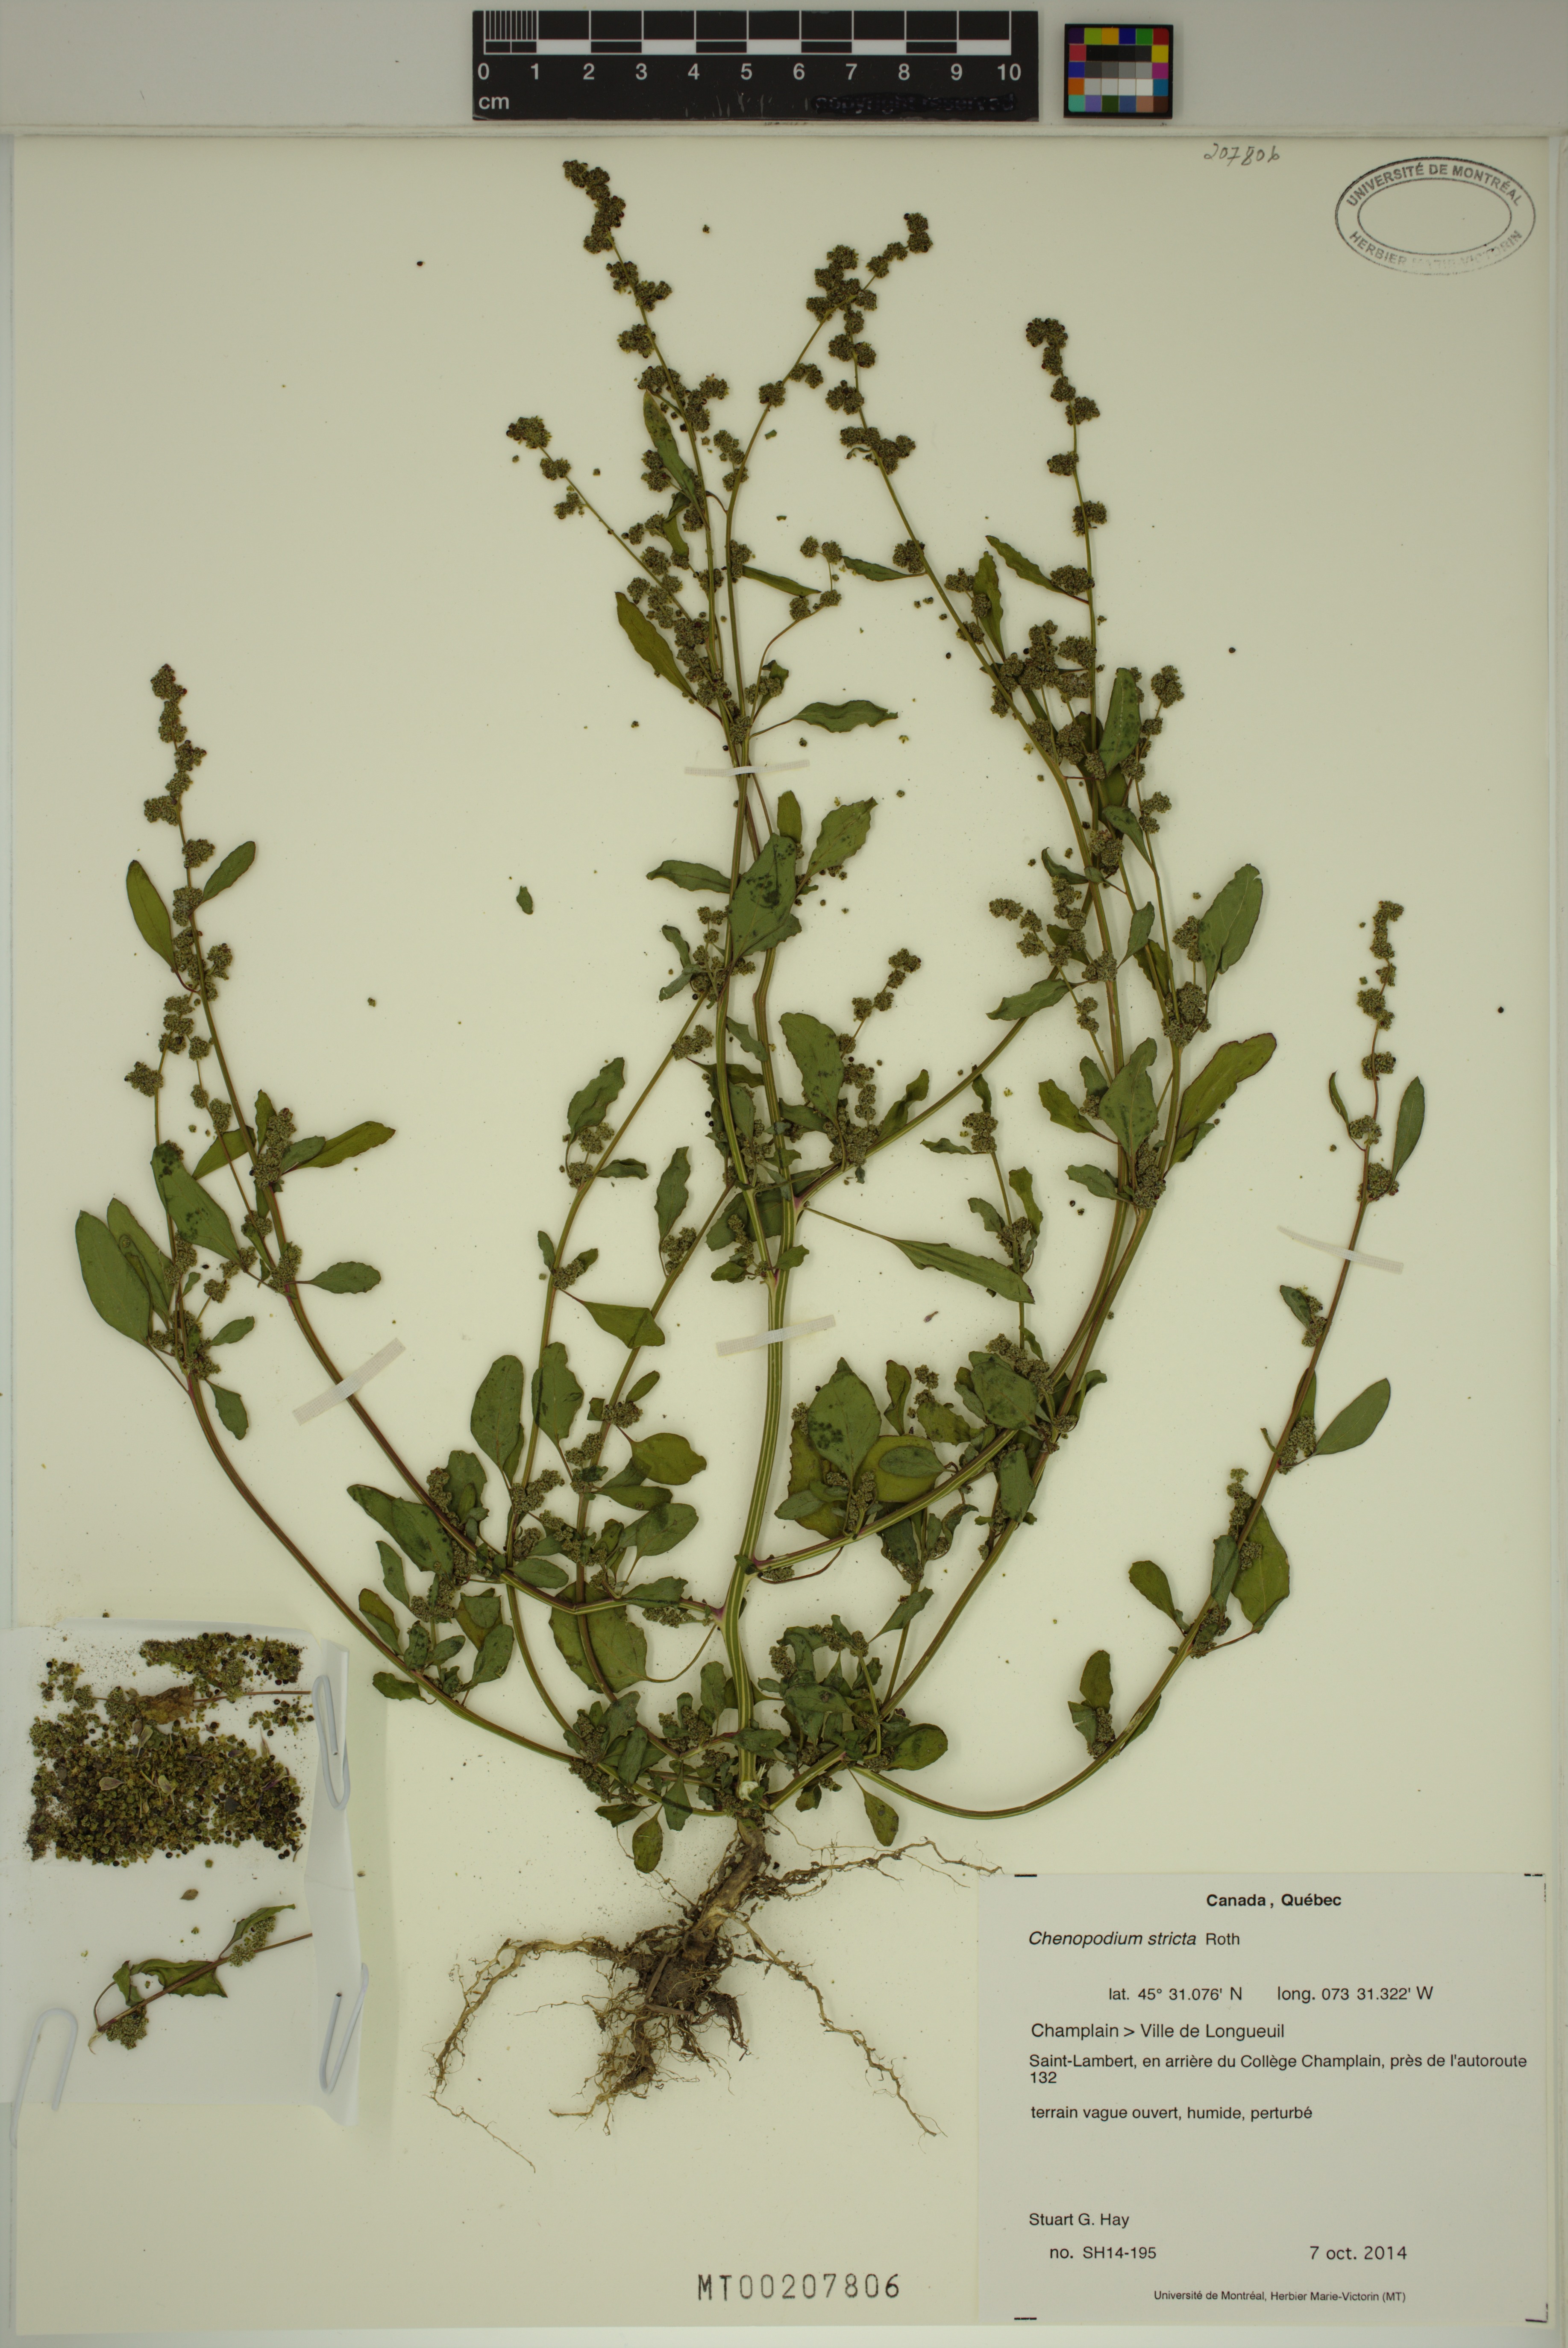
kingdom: Plantae
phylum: Tracheophyta
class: Magnoliopsida
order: Caryophyllales
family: Amaranthaceae
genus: Chenopodium
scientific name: Chenopodium album
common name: Fat-hen
